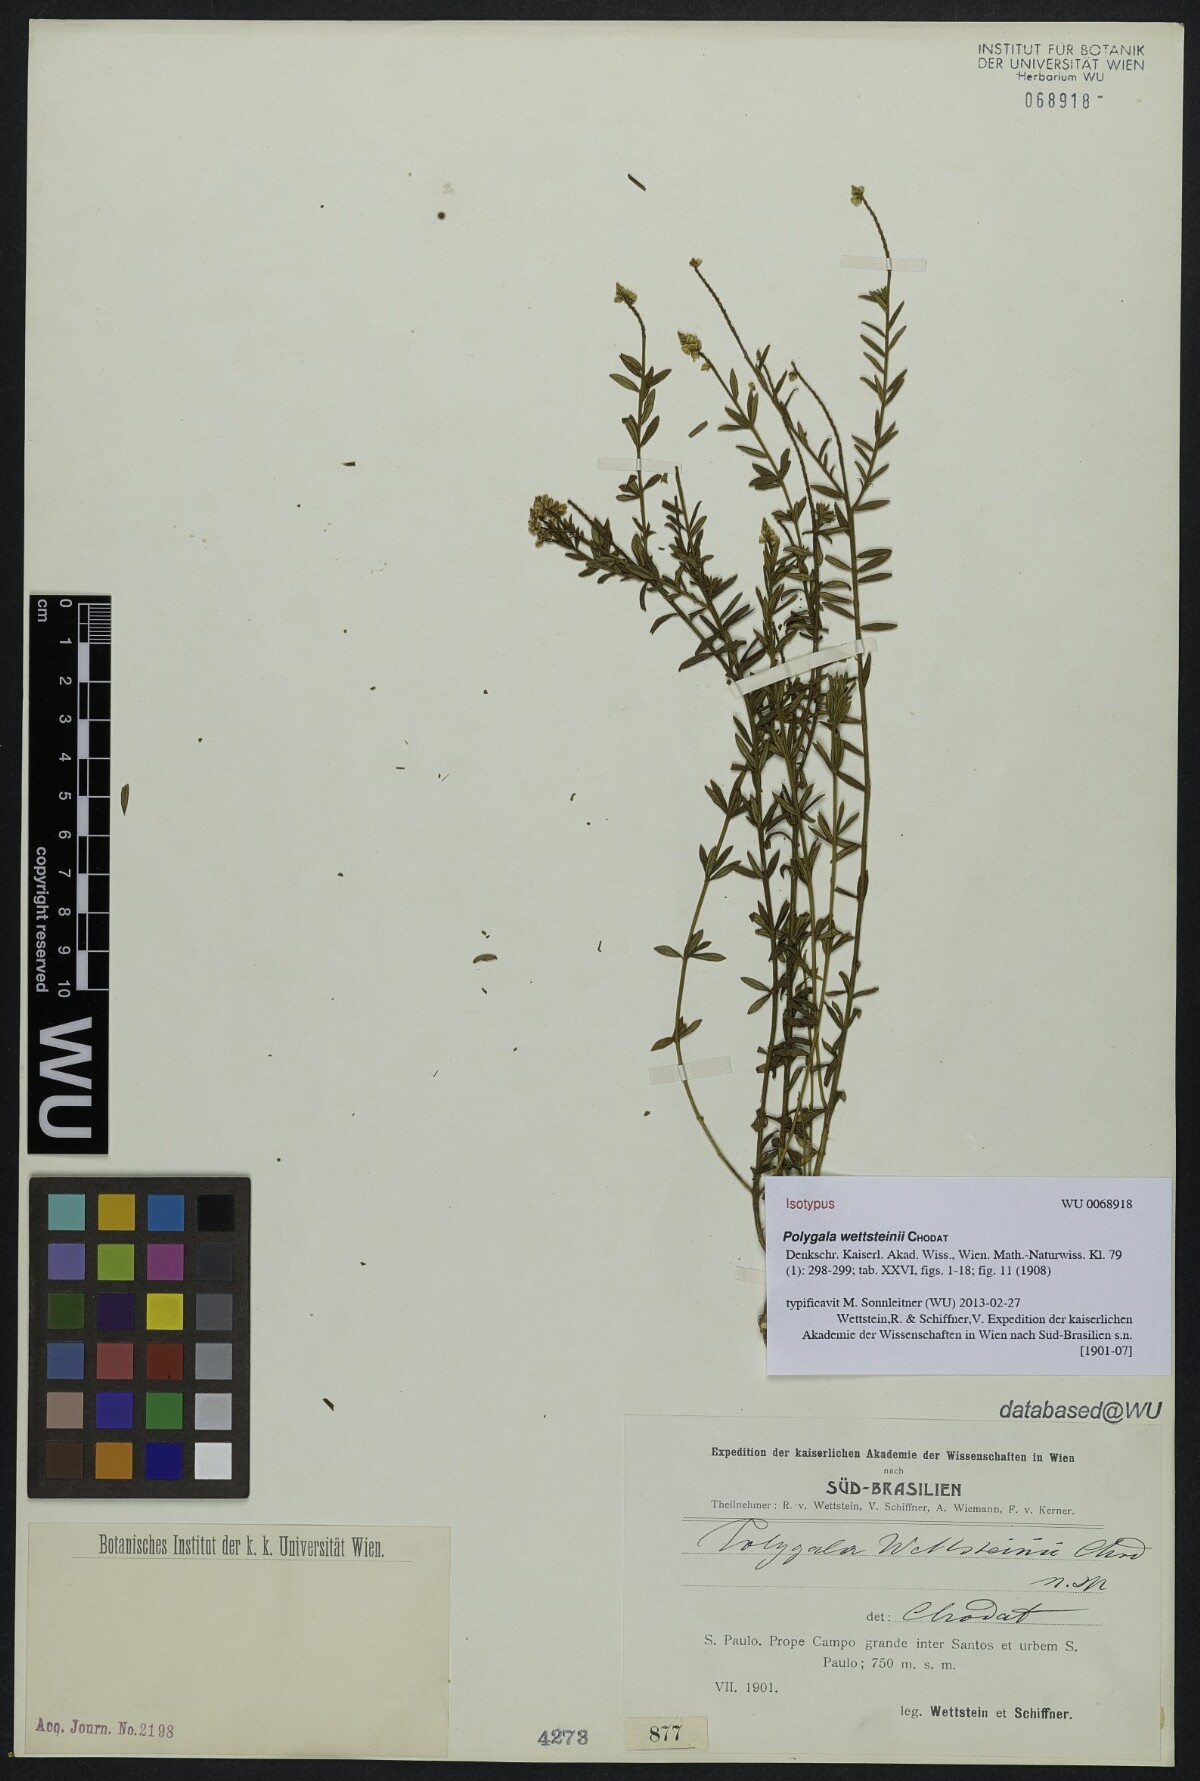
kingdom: Plantae
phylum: Tracheophyta
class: Magnoliopsida
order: Fabales
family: Polygalaceae
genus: Polygala
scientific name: Polygala wettsteinii
